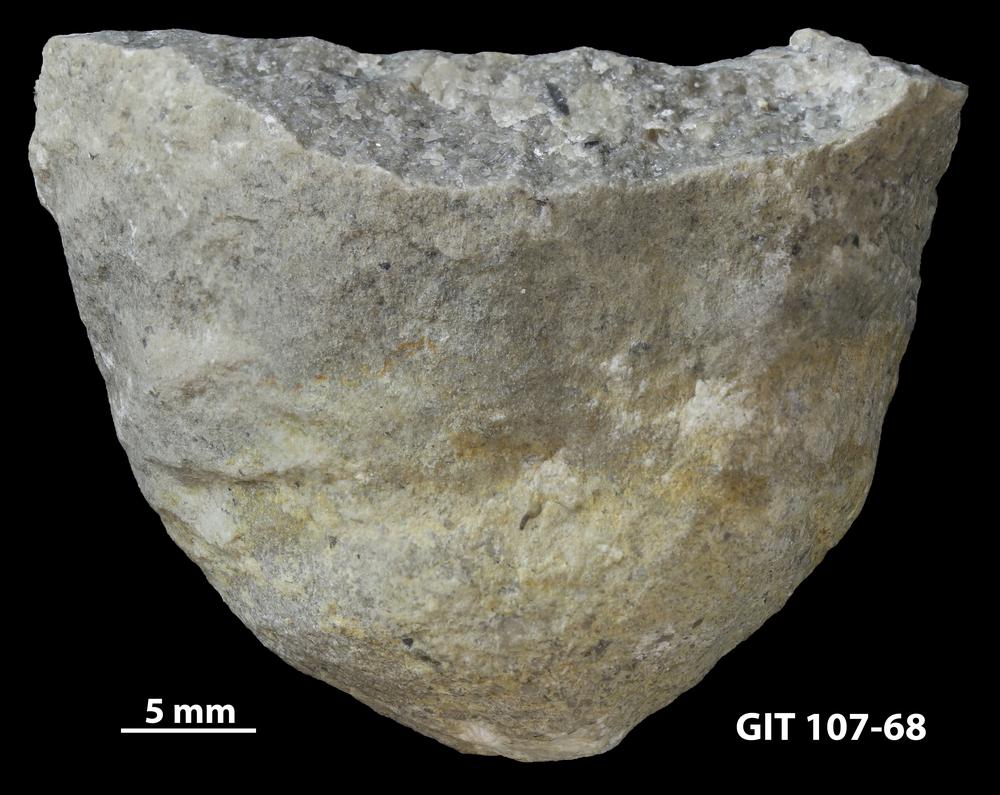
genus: Conichnus
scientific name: Conichnus
